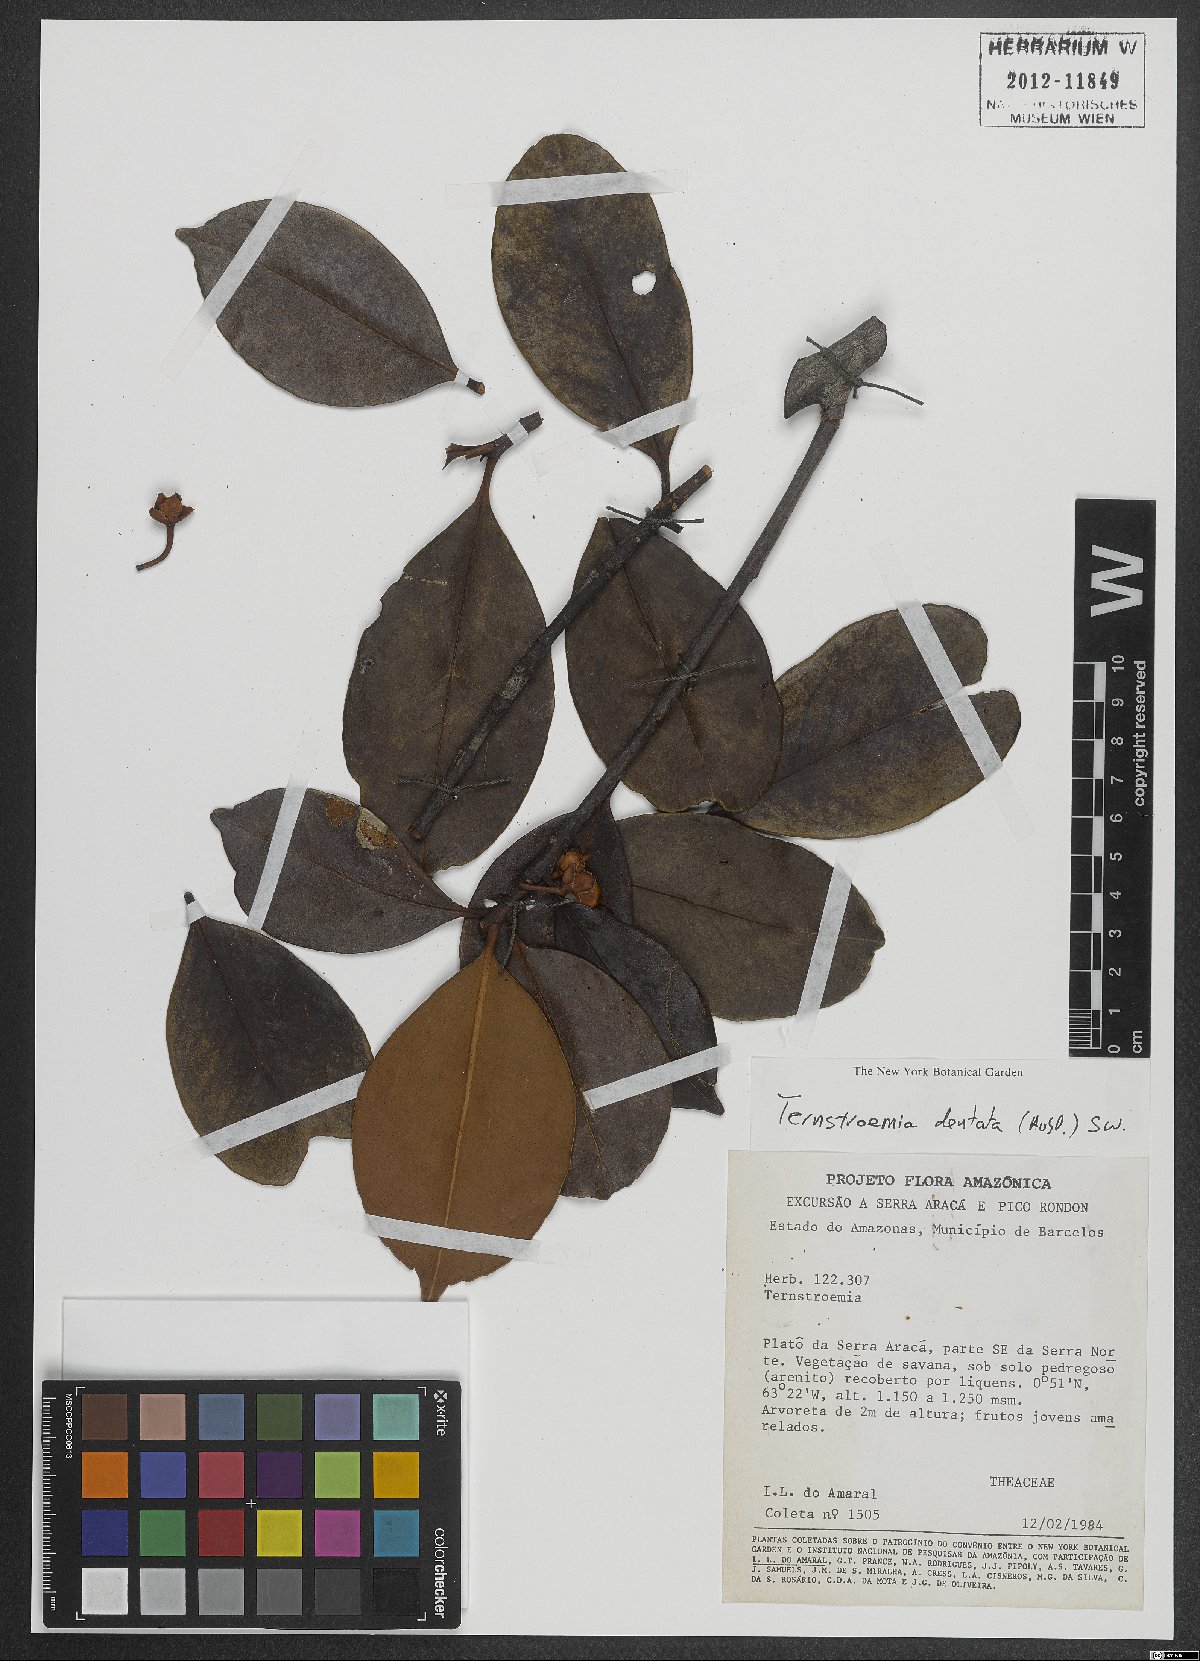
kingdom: Plantae
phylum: Tracheophyta
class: Magnoliopsida
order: Ericales
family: Pentaphylacaceae
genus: Ternstroemia
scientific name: Ternstroemia dentata
